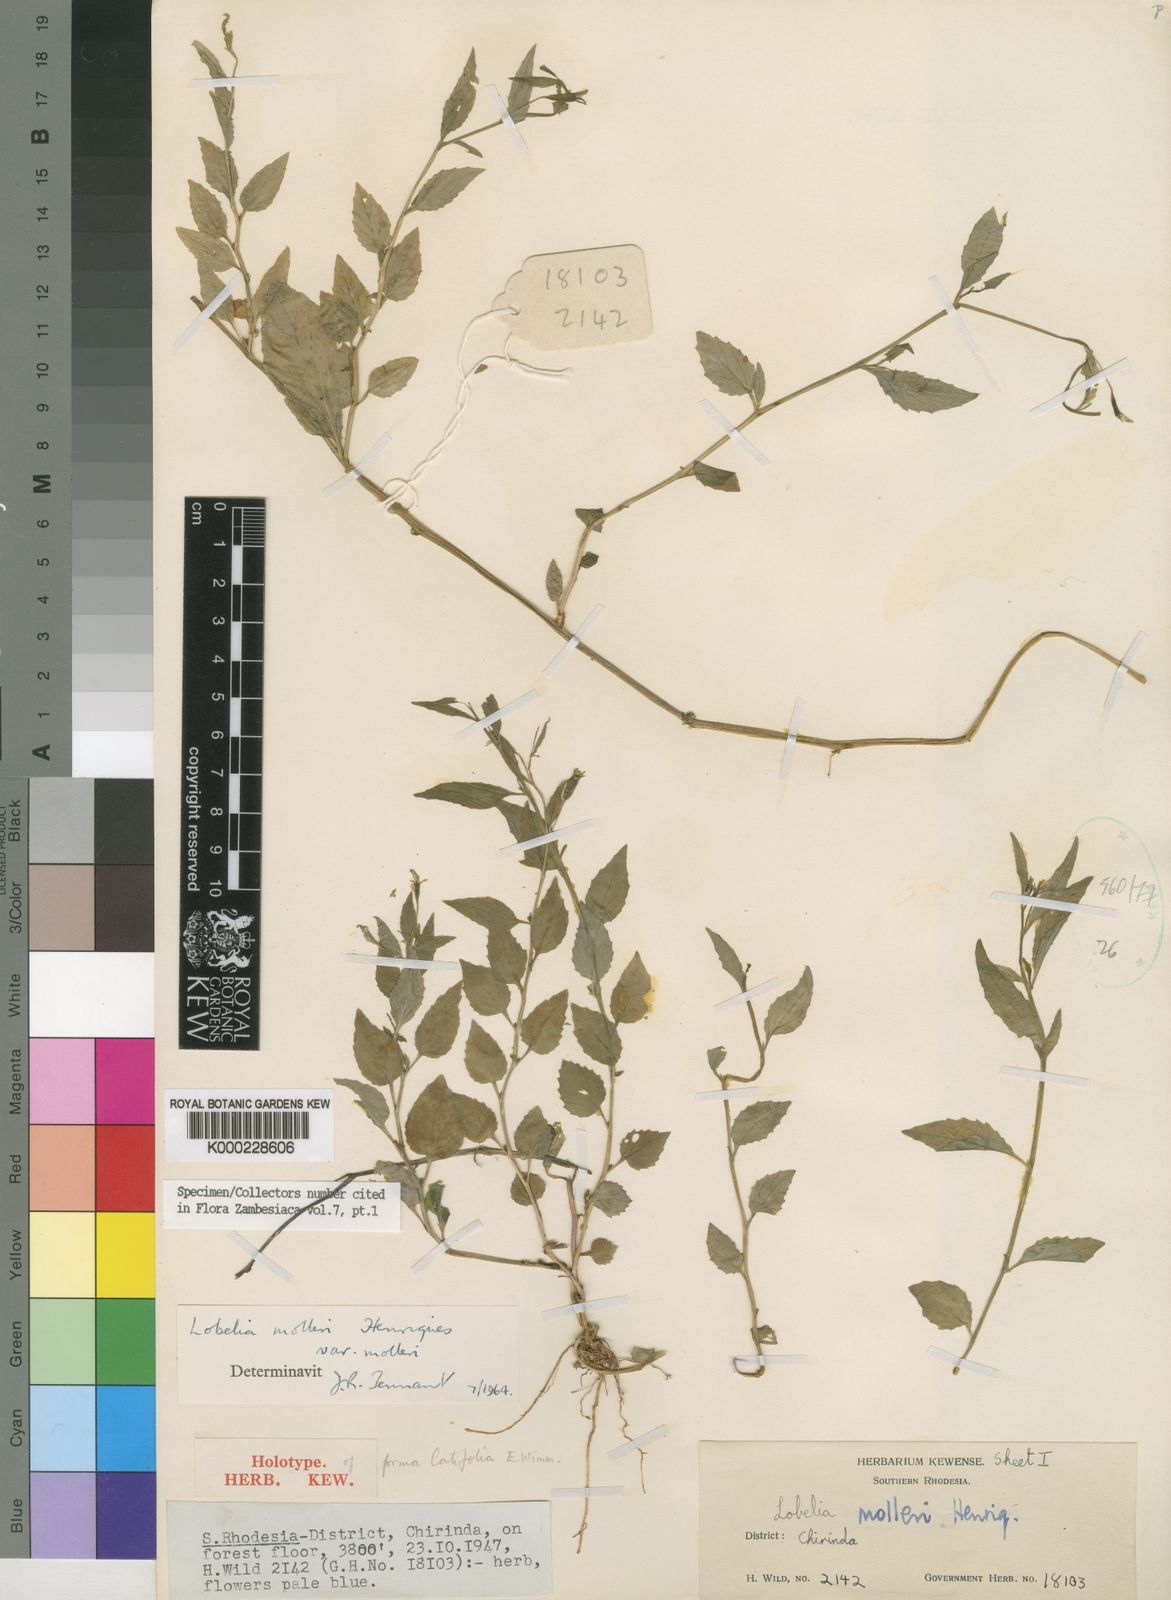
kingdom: Plantae
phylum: Tracheophyta
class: Magnoliopsida
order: Asterales
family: Campanulaceae
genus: Lobelia
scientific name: Lobelia molleri
